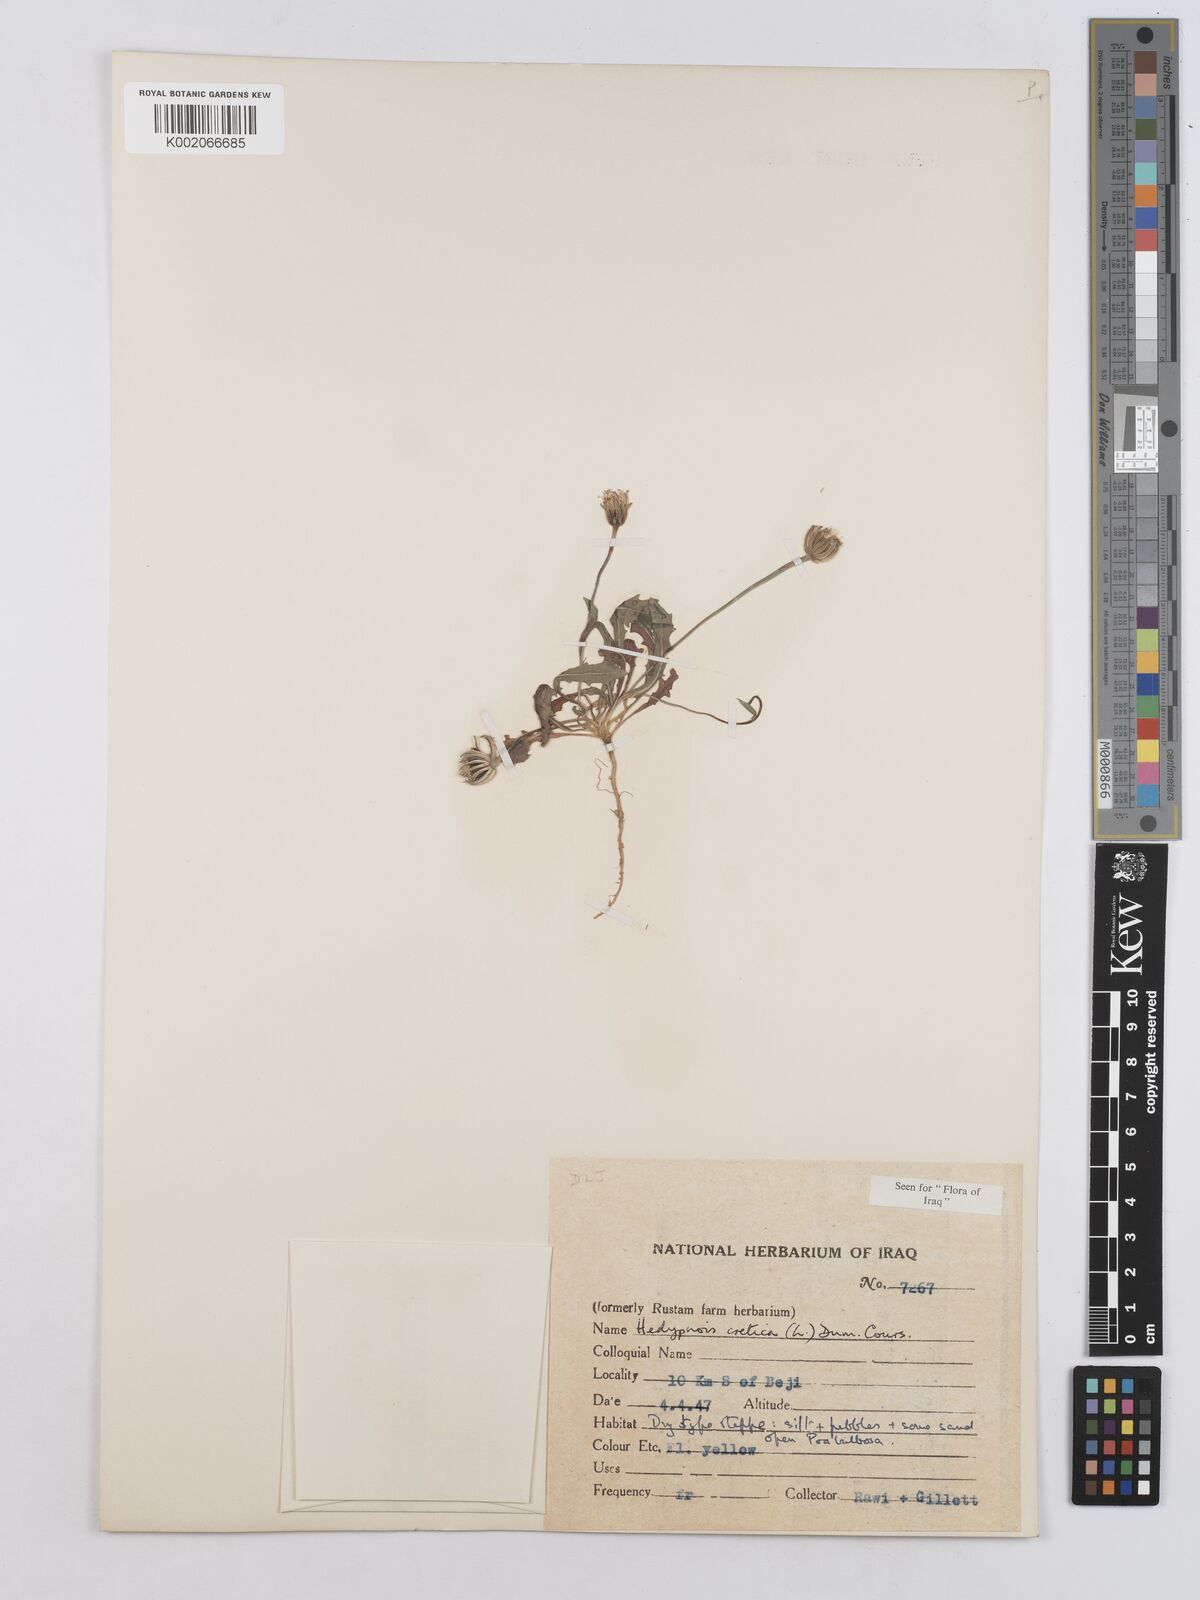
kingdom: Plantae
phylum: Tracheophyta
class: Magnoliopsida
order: Asterales
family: Asteraceae
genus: Hedypnois
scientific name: Hedypnois cretica
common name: Scaly hawkbit
